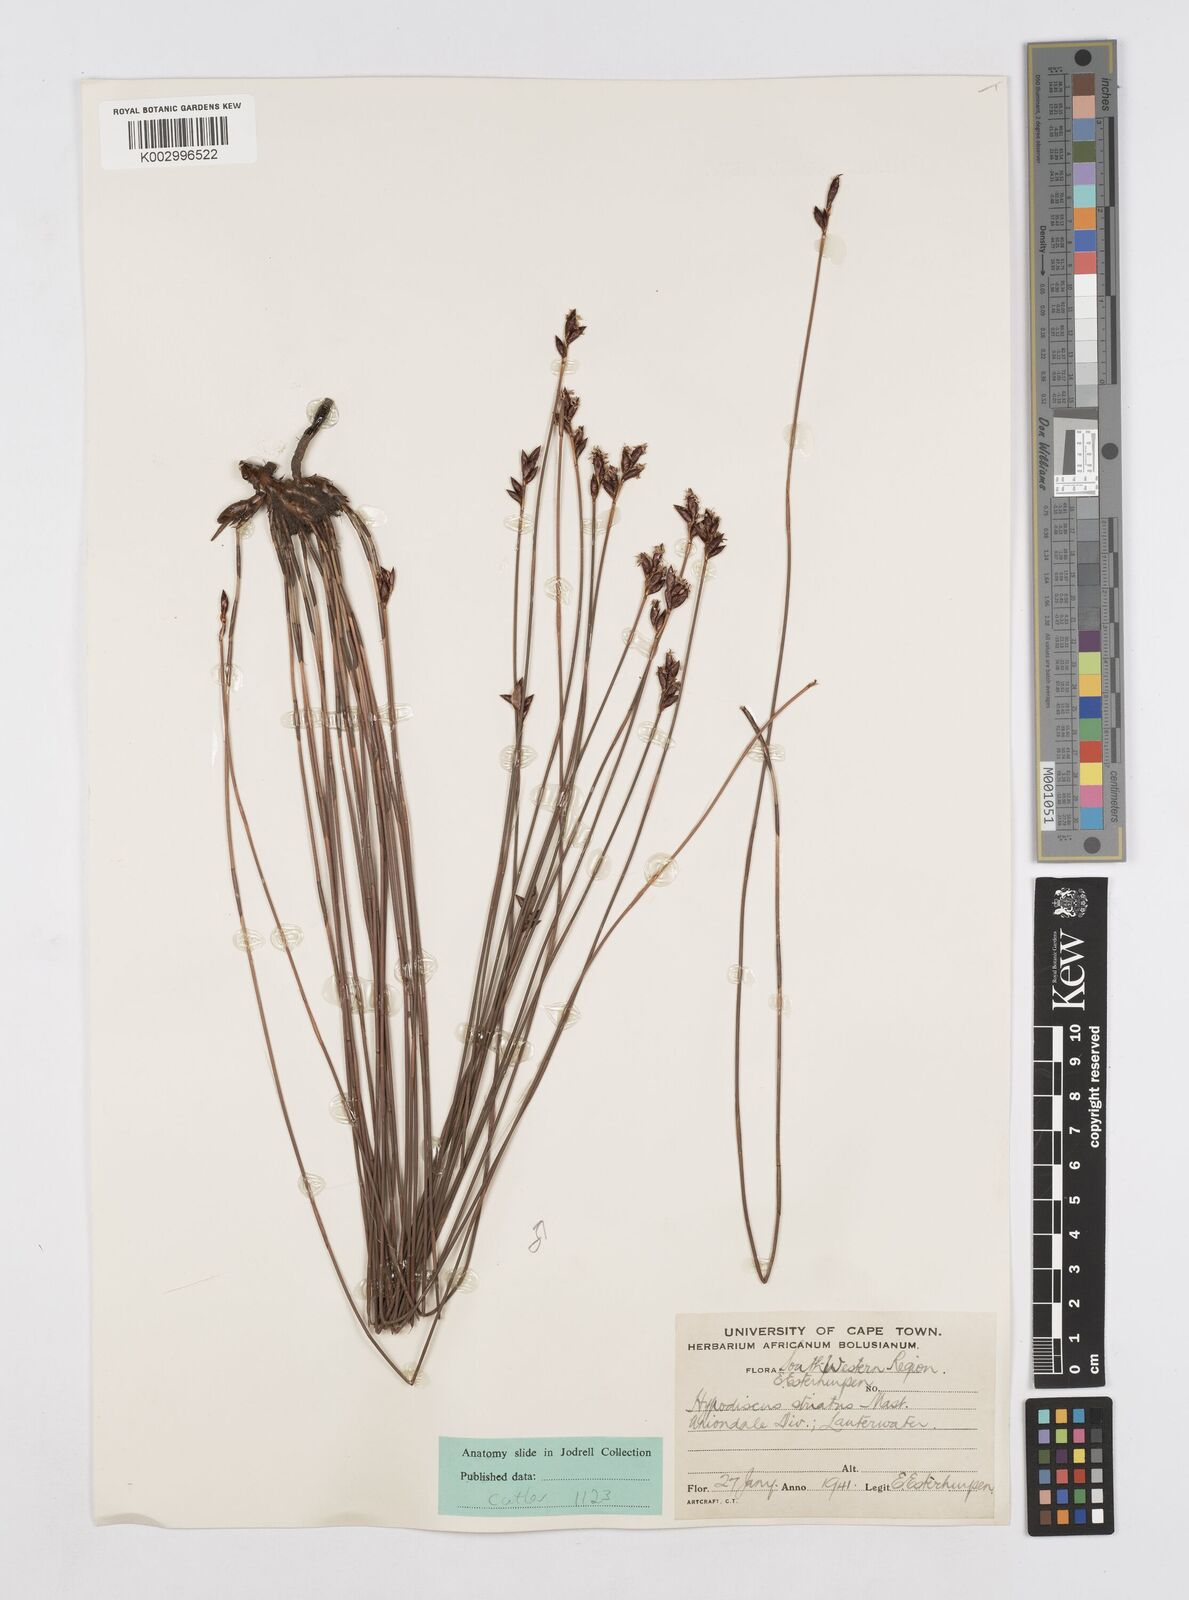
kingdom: Plantae
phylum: Tracheophyta
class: Liliopsida
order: Poales
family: Restionaceae
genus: Hypodiscus
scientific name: Hypodiscus striatus
